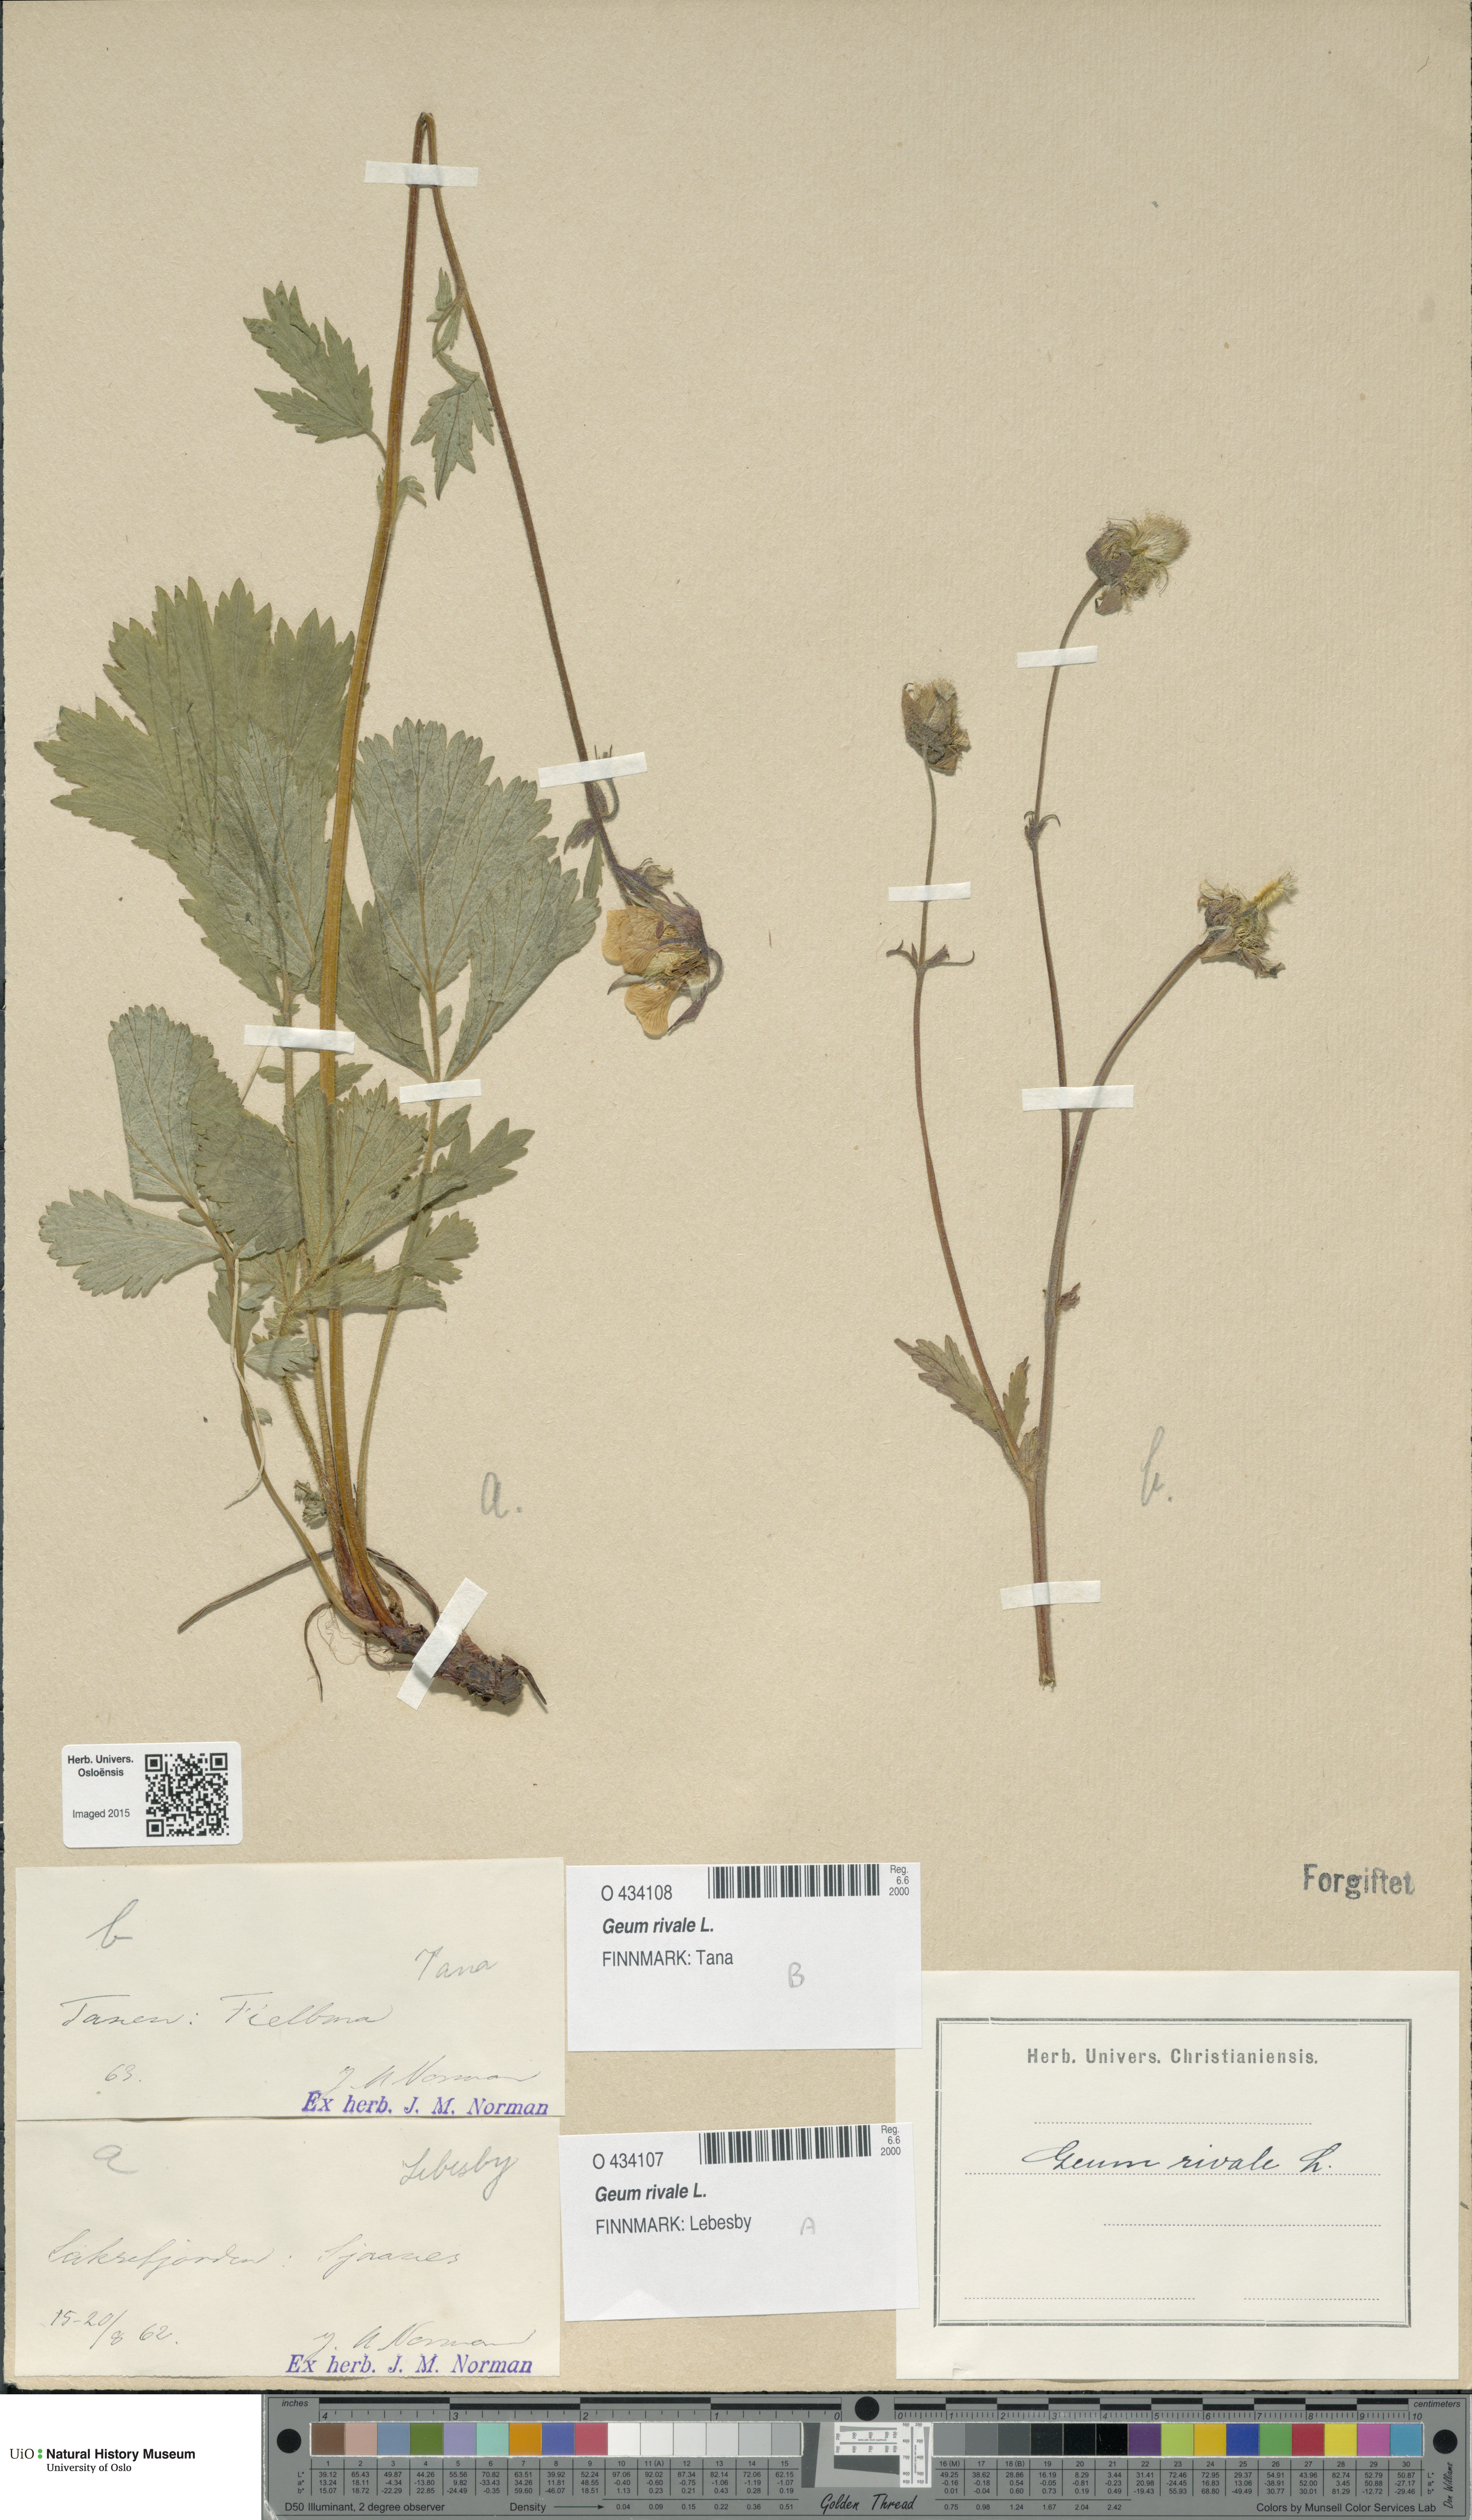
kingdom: Plantae
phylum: Tracheophyta
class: Magnoliopsida
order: Rosales
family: Rosaceae
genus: Geum
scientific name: Geum rivale
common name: Water avens
